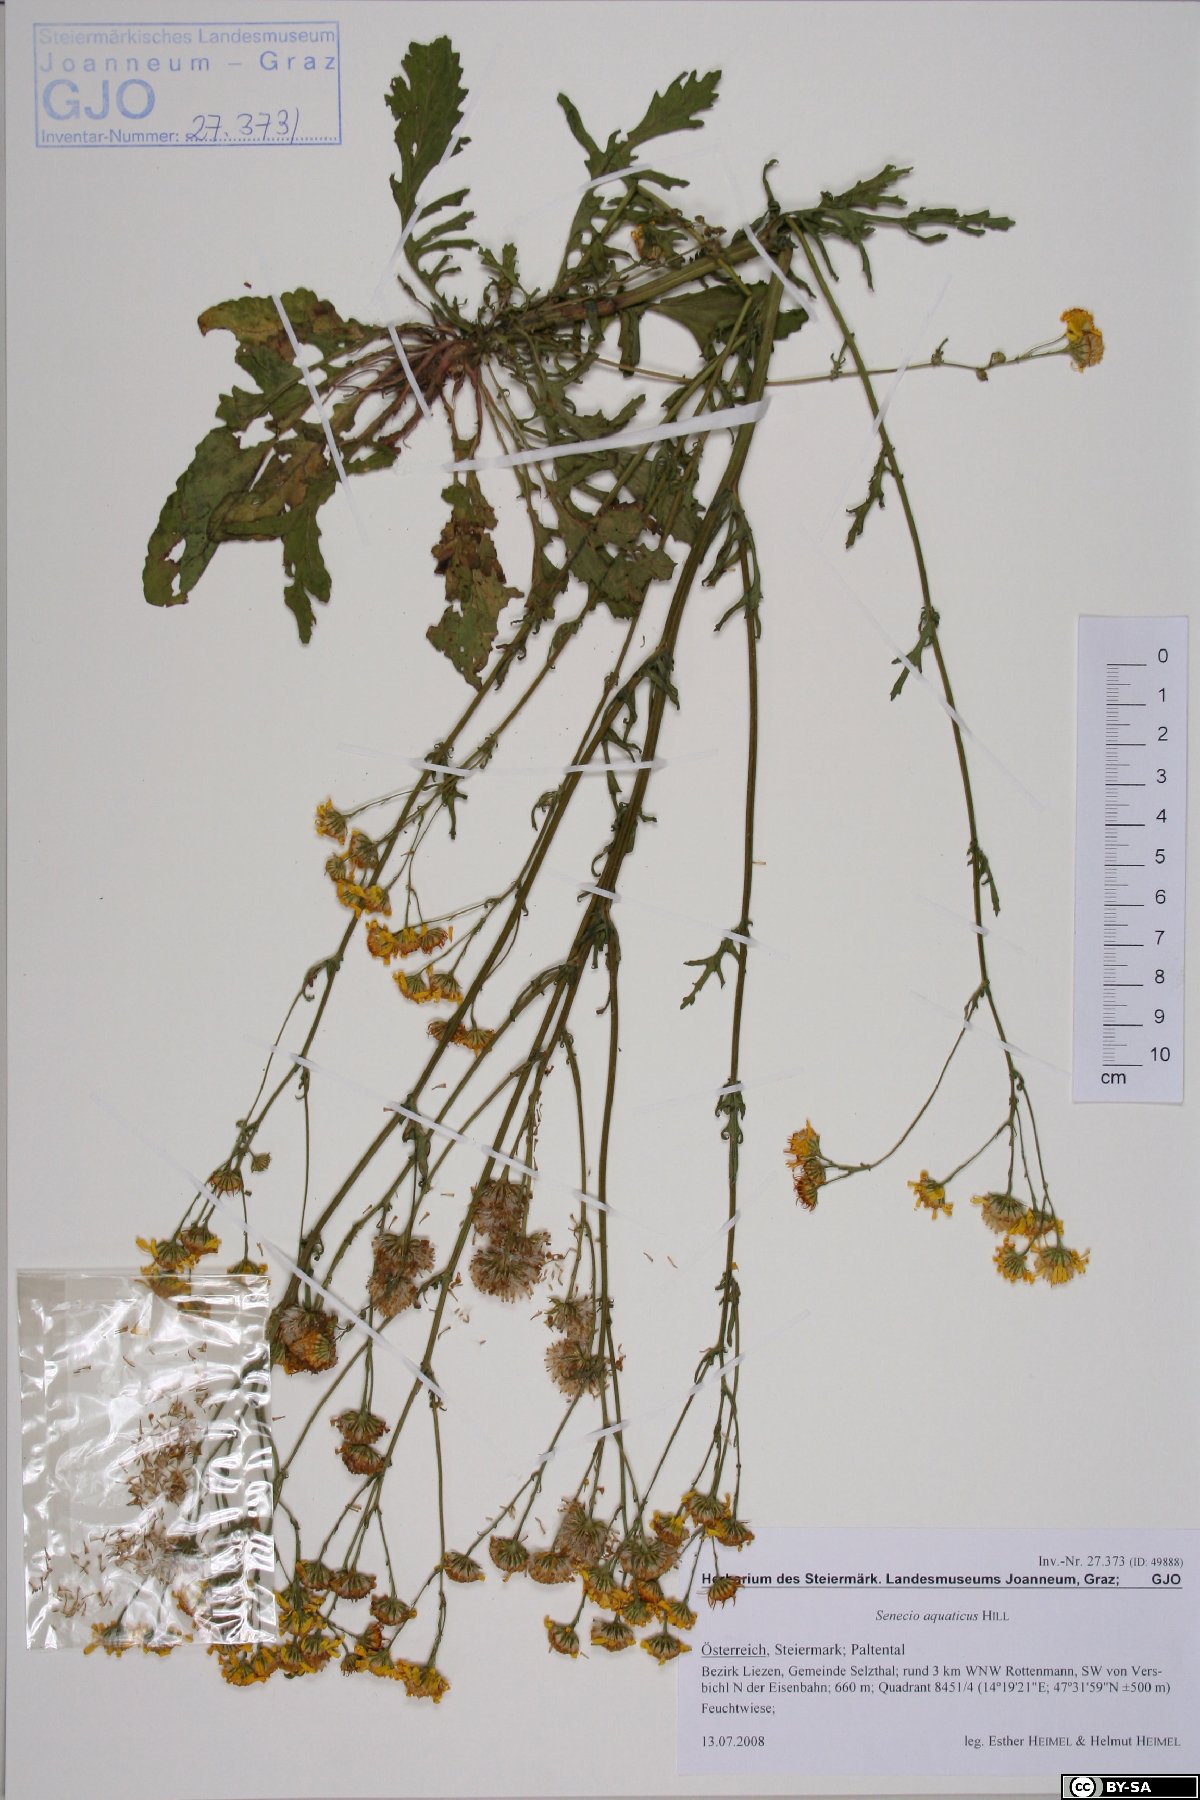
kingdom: Plantae
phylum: Tracheophyta
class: Magnoliopsida
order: Asterales
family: Asteraceae
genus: Jacobaea
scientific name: Jacobaea aquatica
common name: Water ragwort
